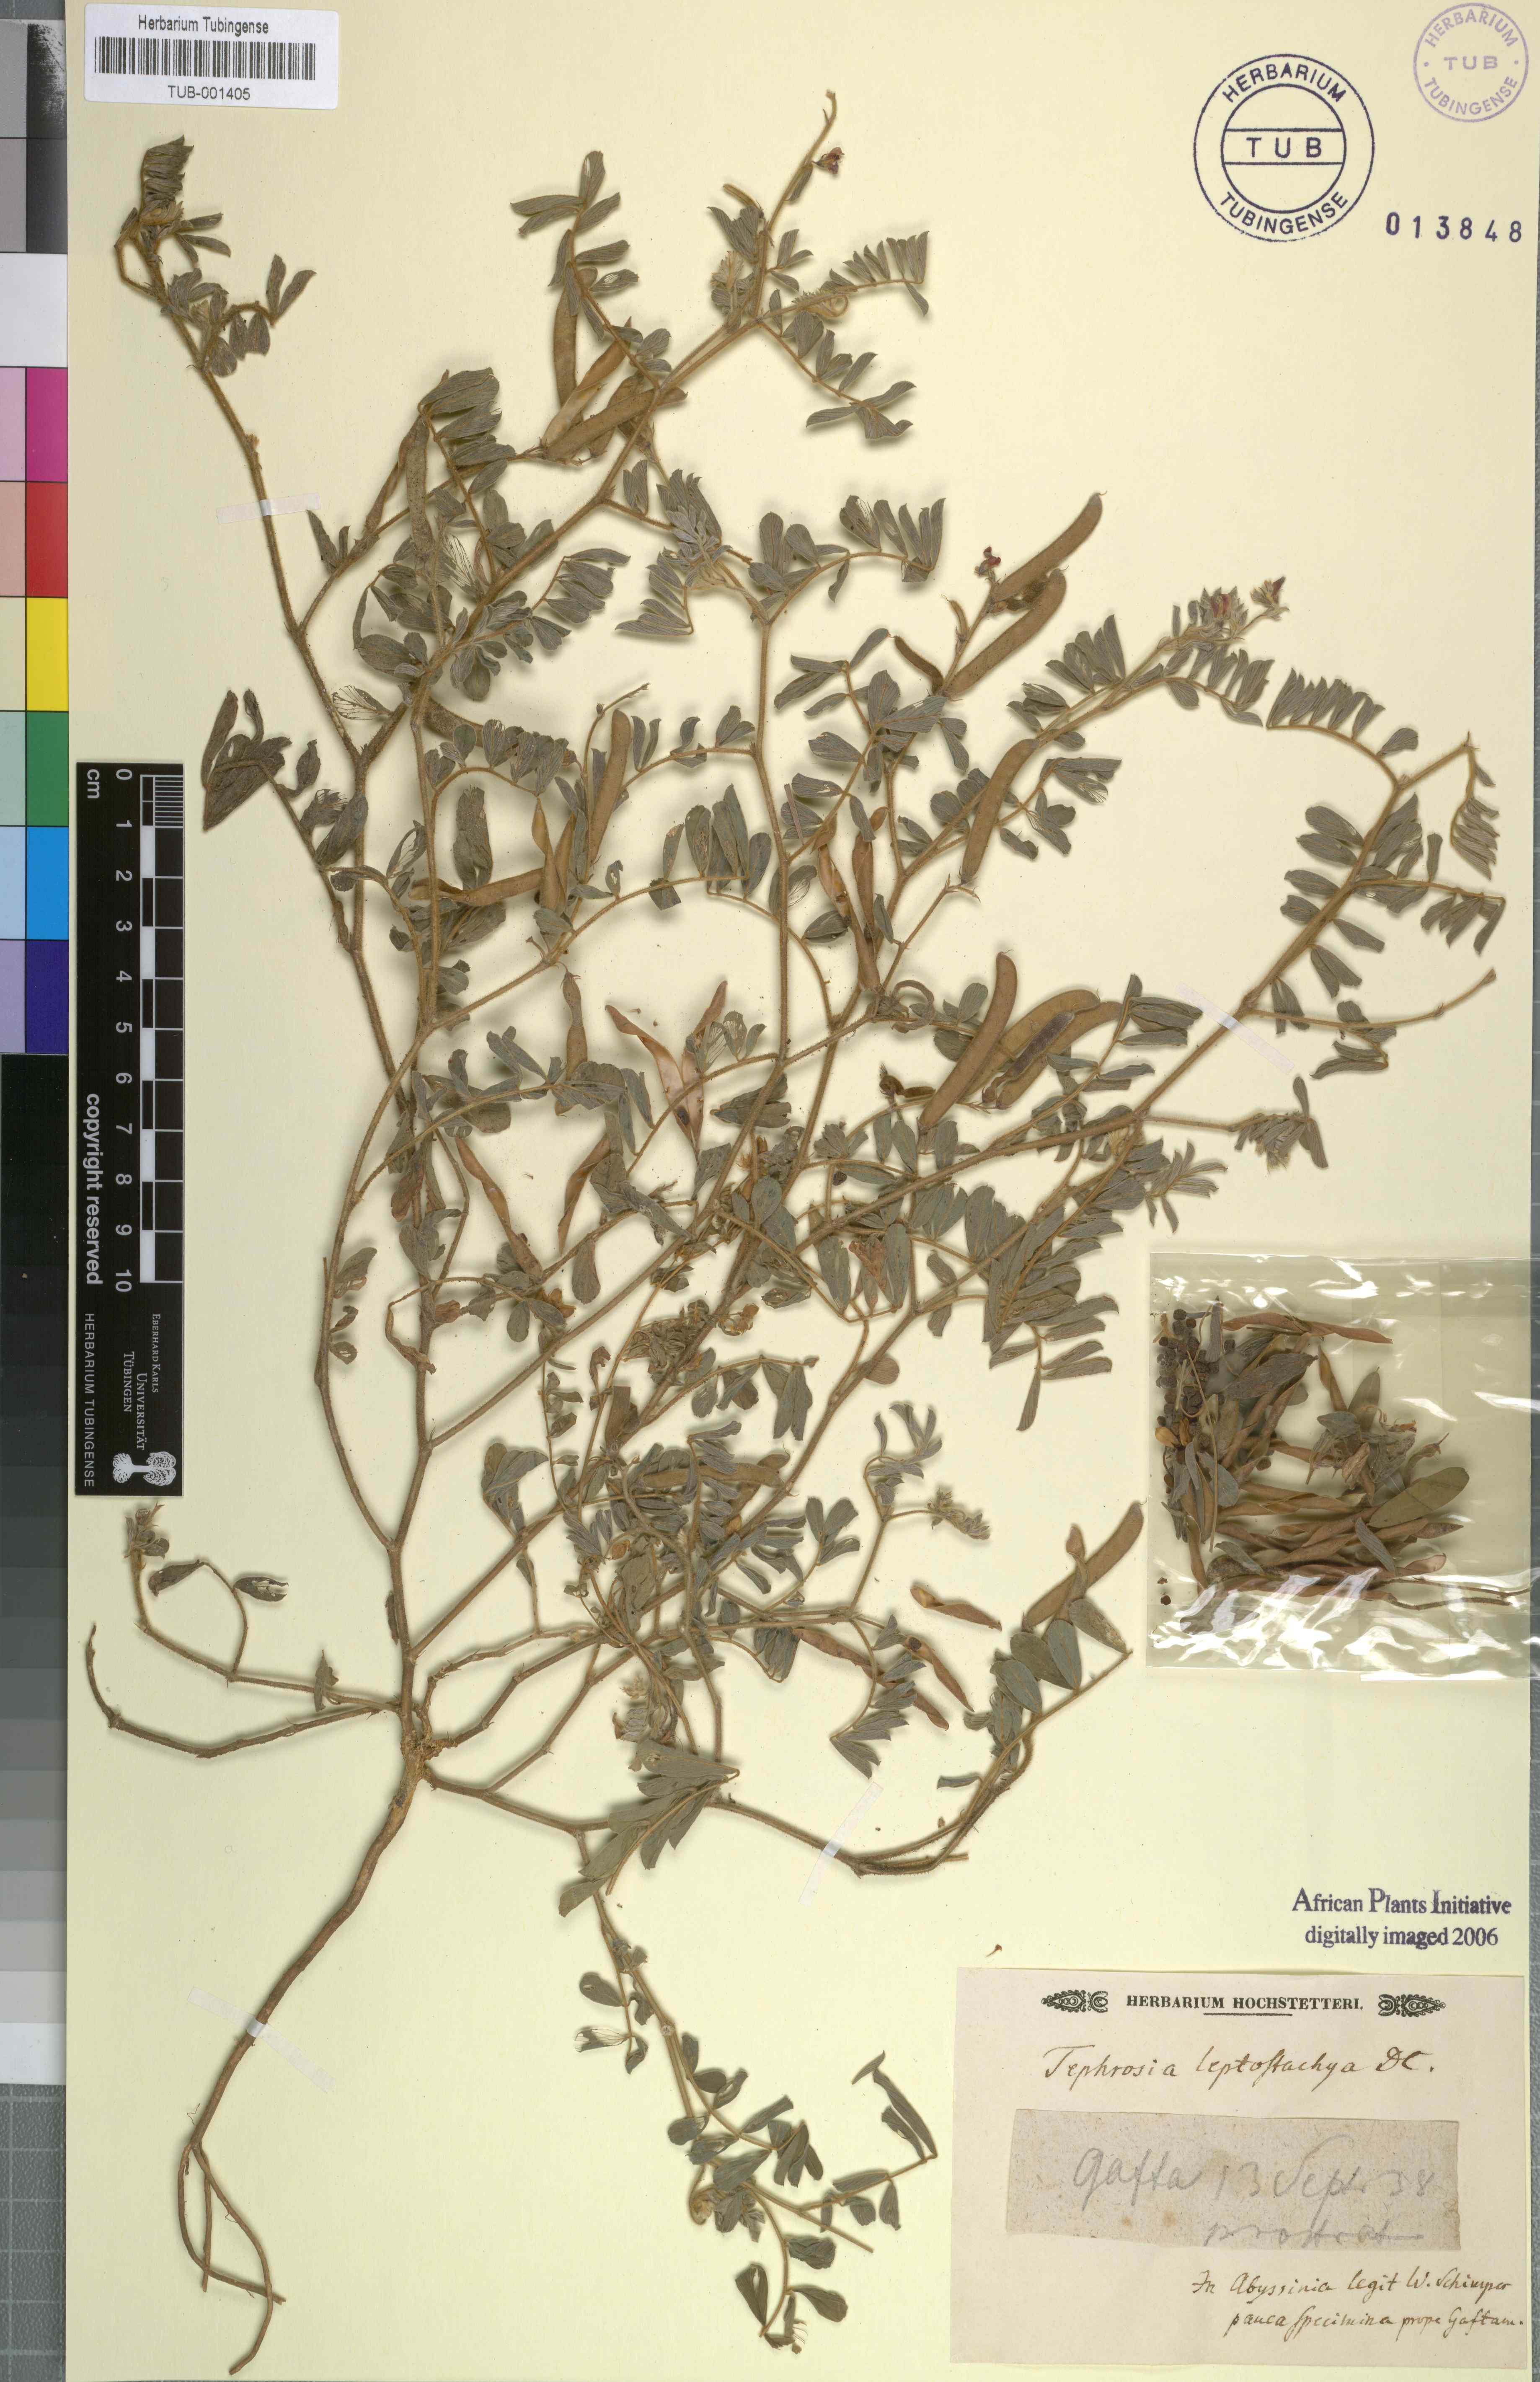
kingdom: Plantae
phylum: Tracheophyta
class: Magnoliopsida
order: Fabales
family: Fabaceae
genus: Tephrosia
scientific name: Tephrosia purpurea
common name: Fishpoison
